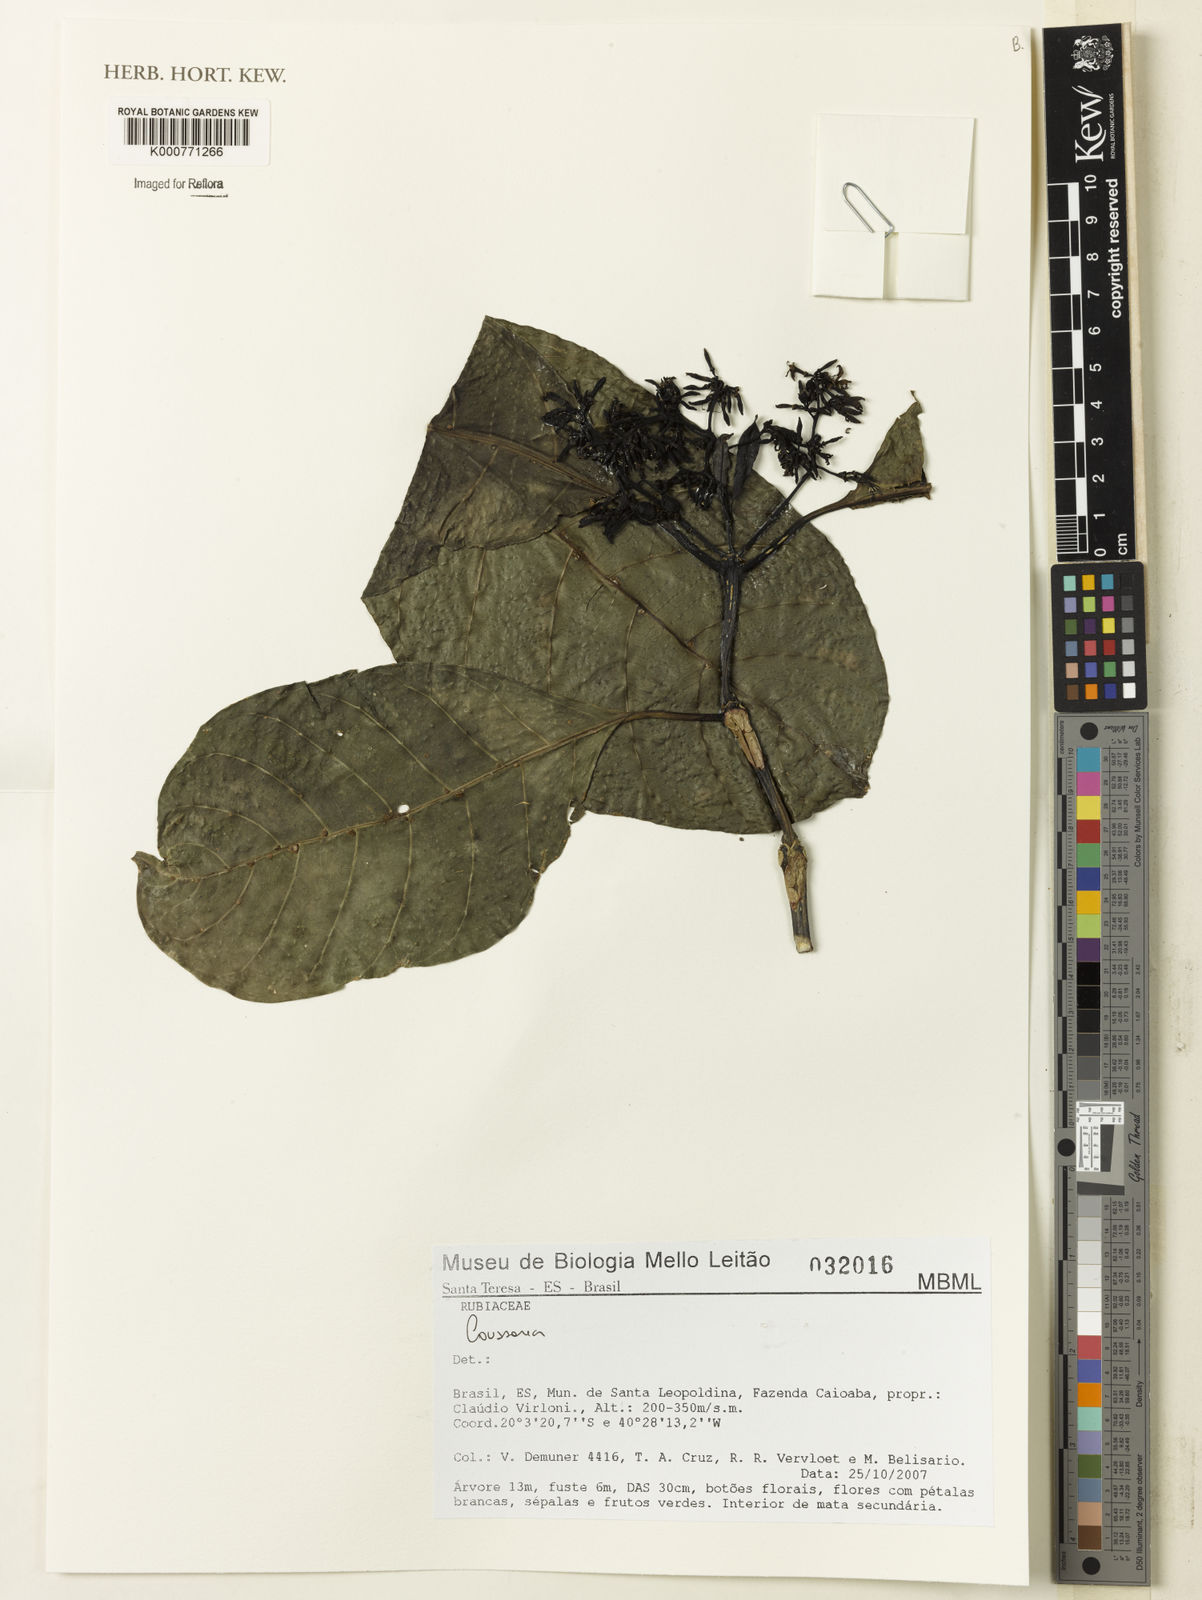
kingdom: Plantae
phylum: Tracheophyta
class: Magnoliopsida
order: Gentianales
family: Rubiaceae
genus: Coussarea
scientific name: Coussarea
